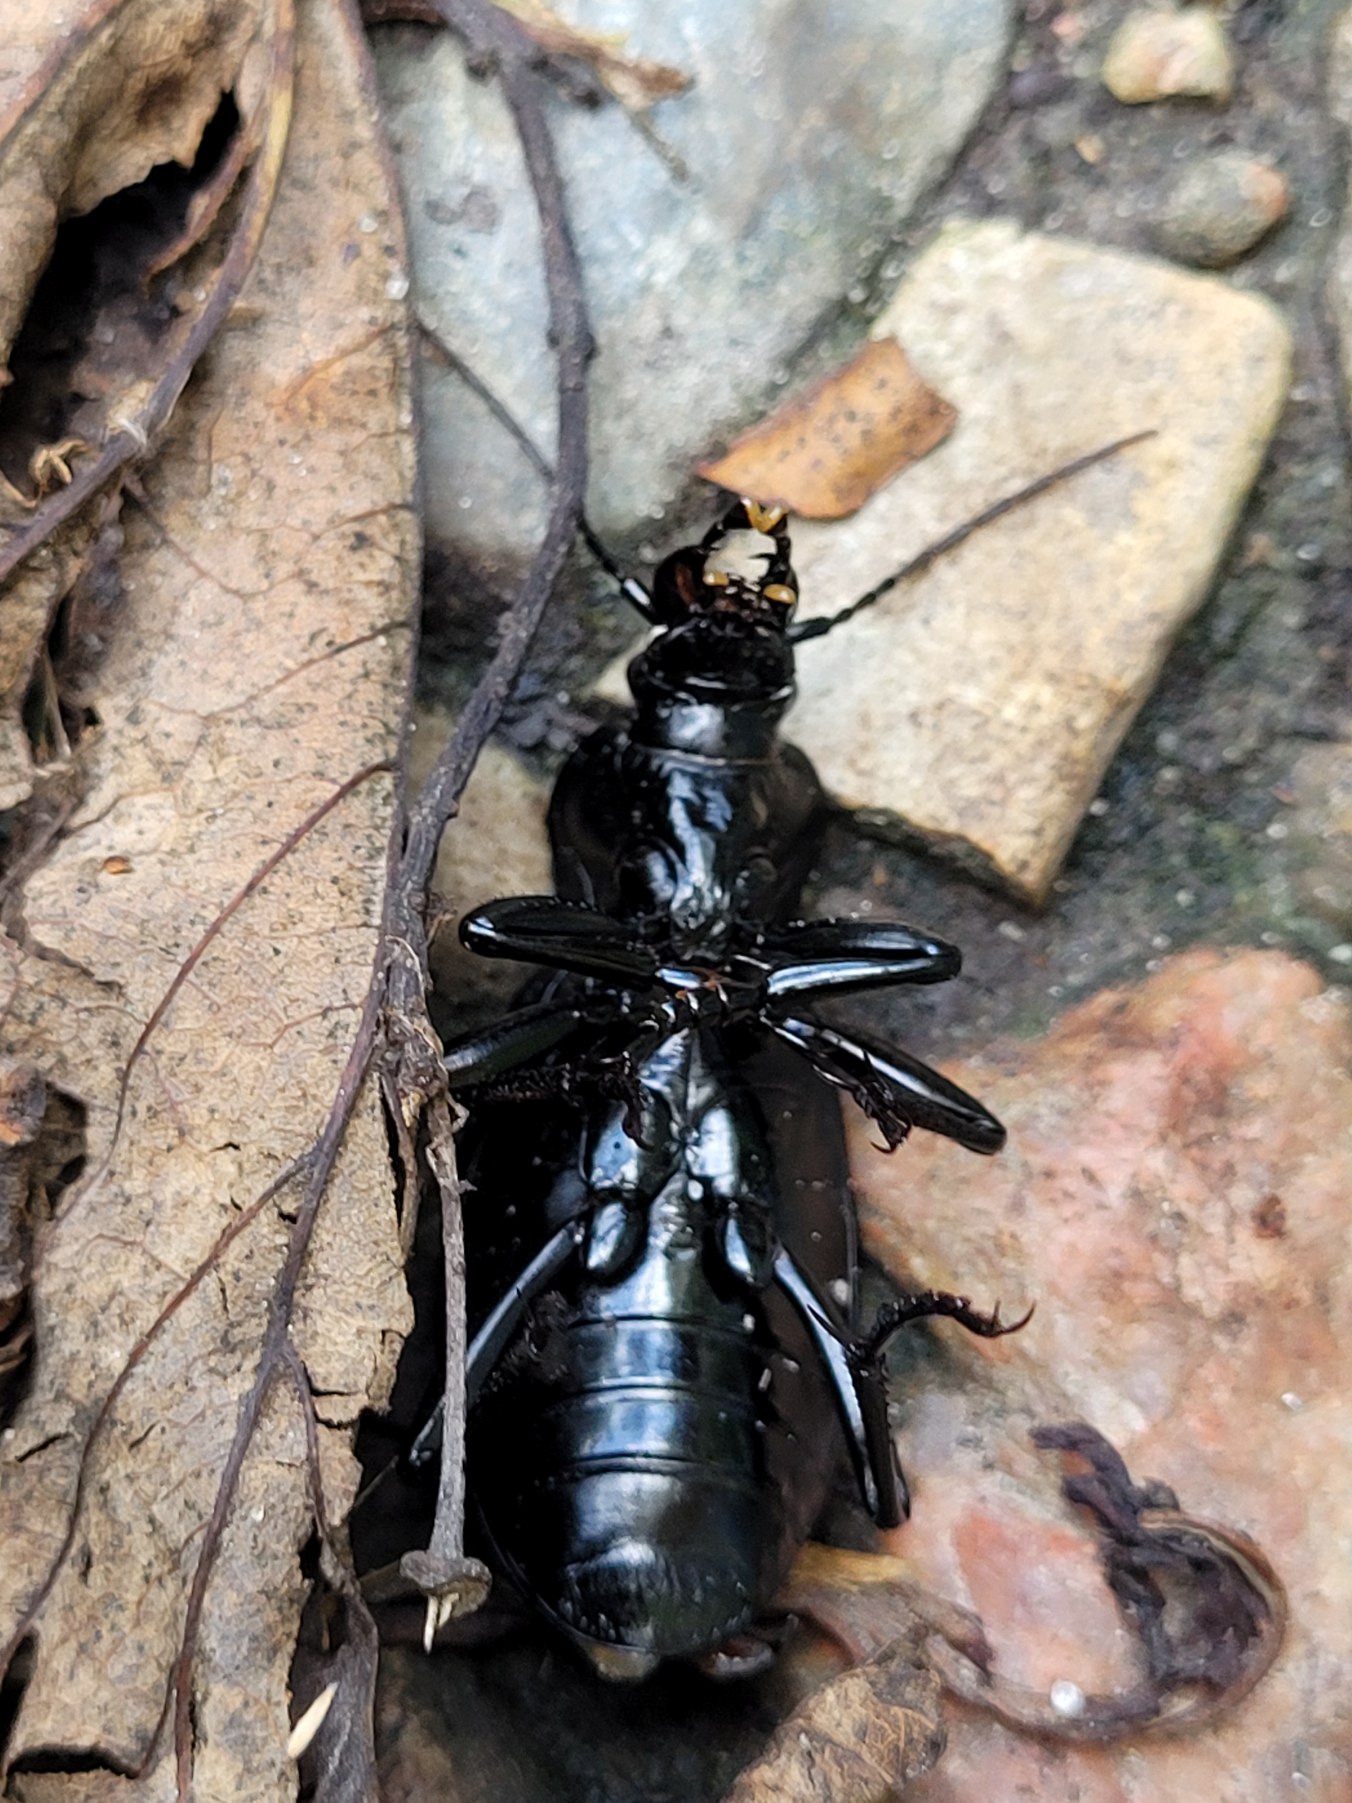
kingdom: Animalia
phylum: Arthropoda
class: Insecta
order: Coleoptera
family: Carabidae
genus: Carabus
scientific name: Carabus coriaceus
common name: Læderløber
